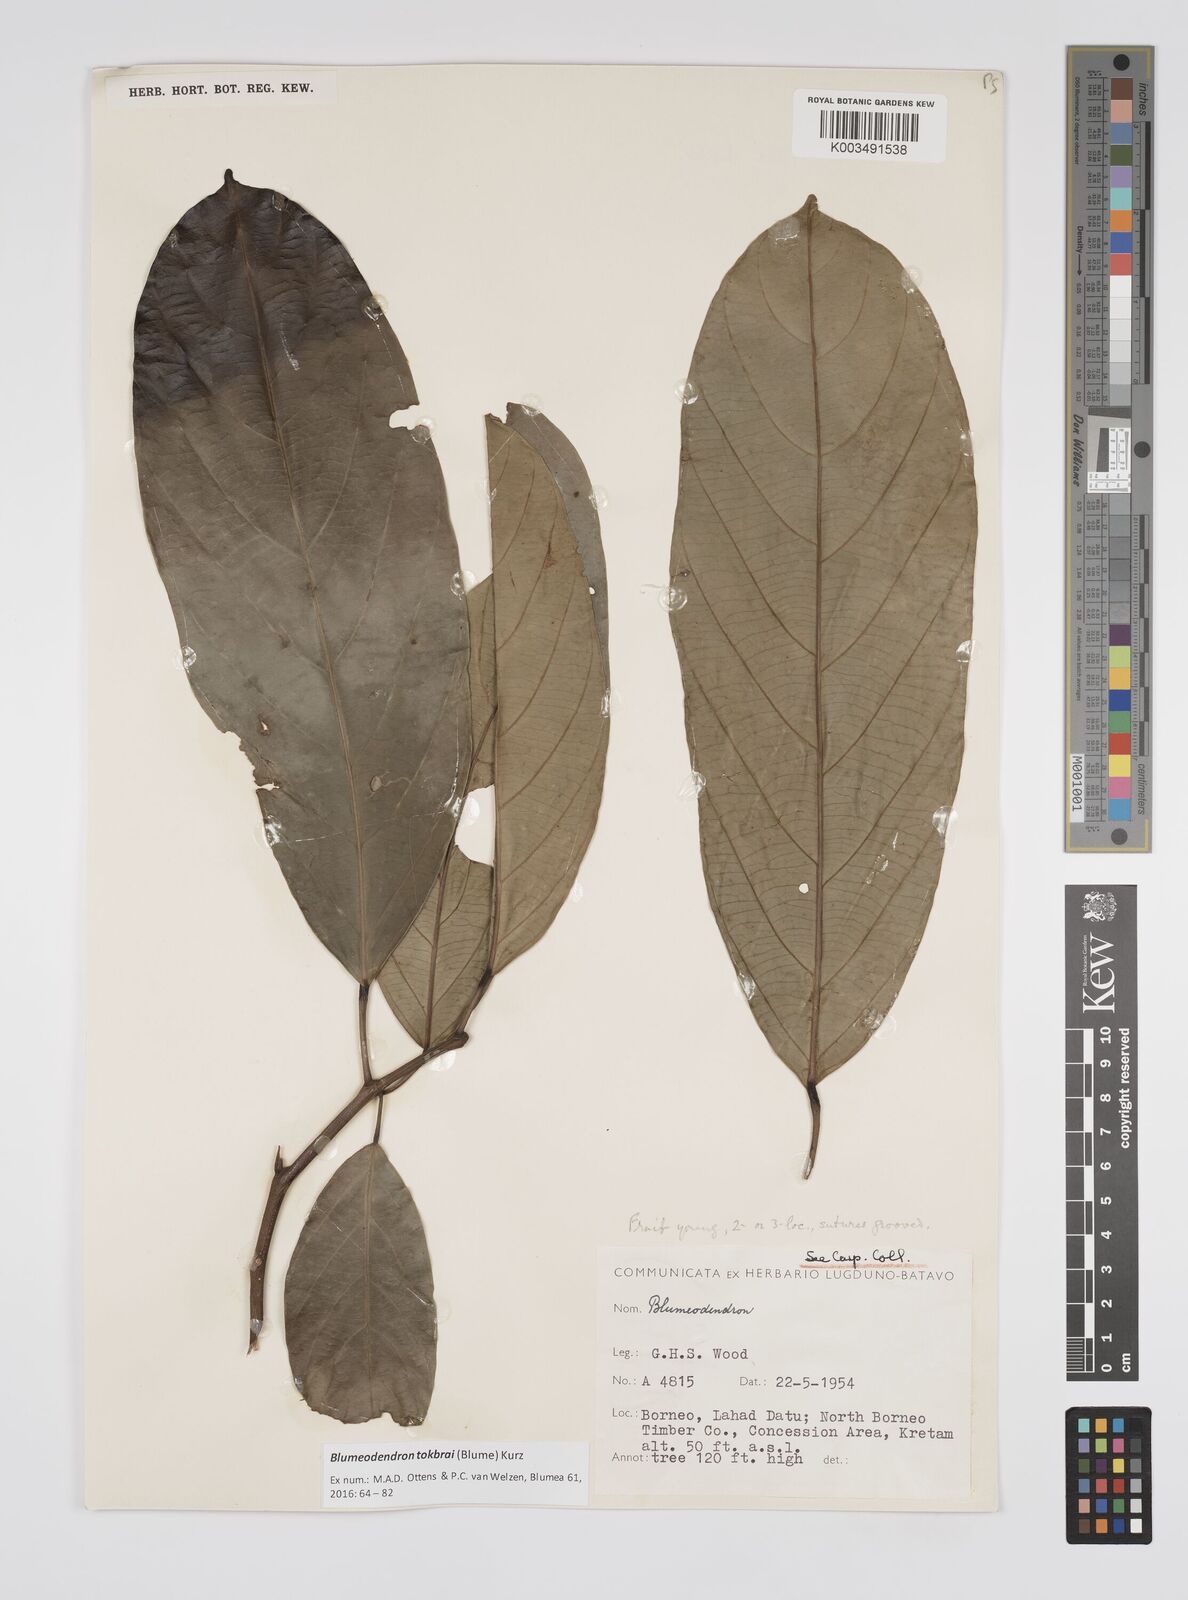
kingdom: Plantae
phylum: Tracheophyta
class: Magnoliopsida
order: Malpighiales
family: Euphorbiaceae
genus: Blumeodendron
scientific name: Blumeodendron tokbrai
